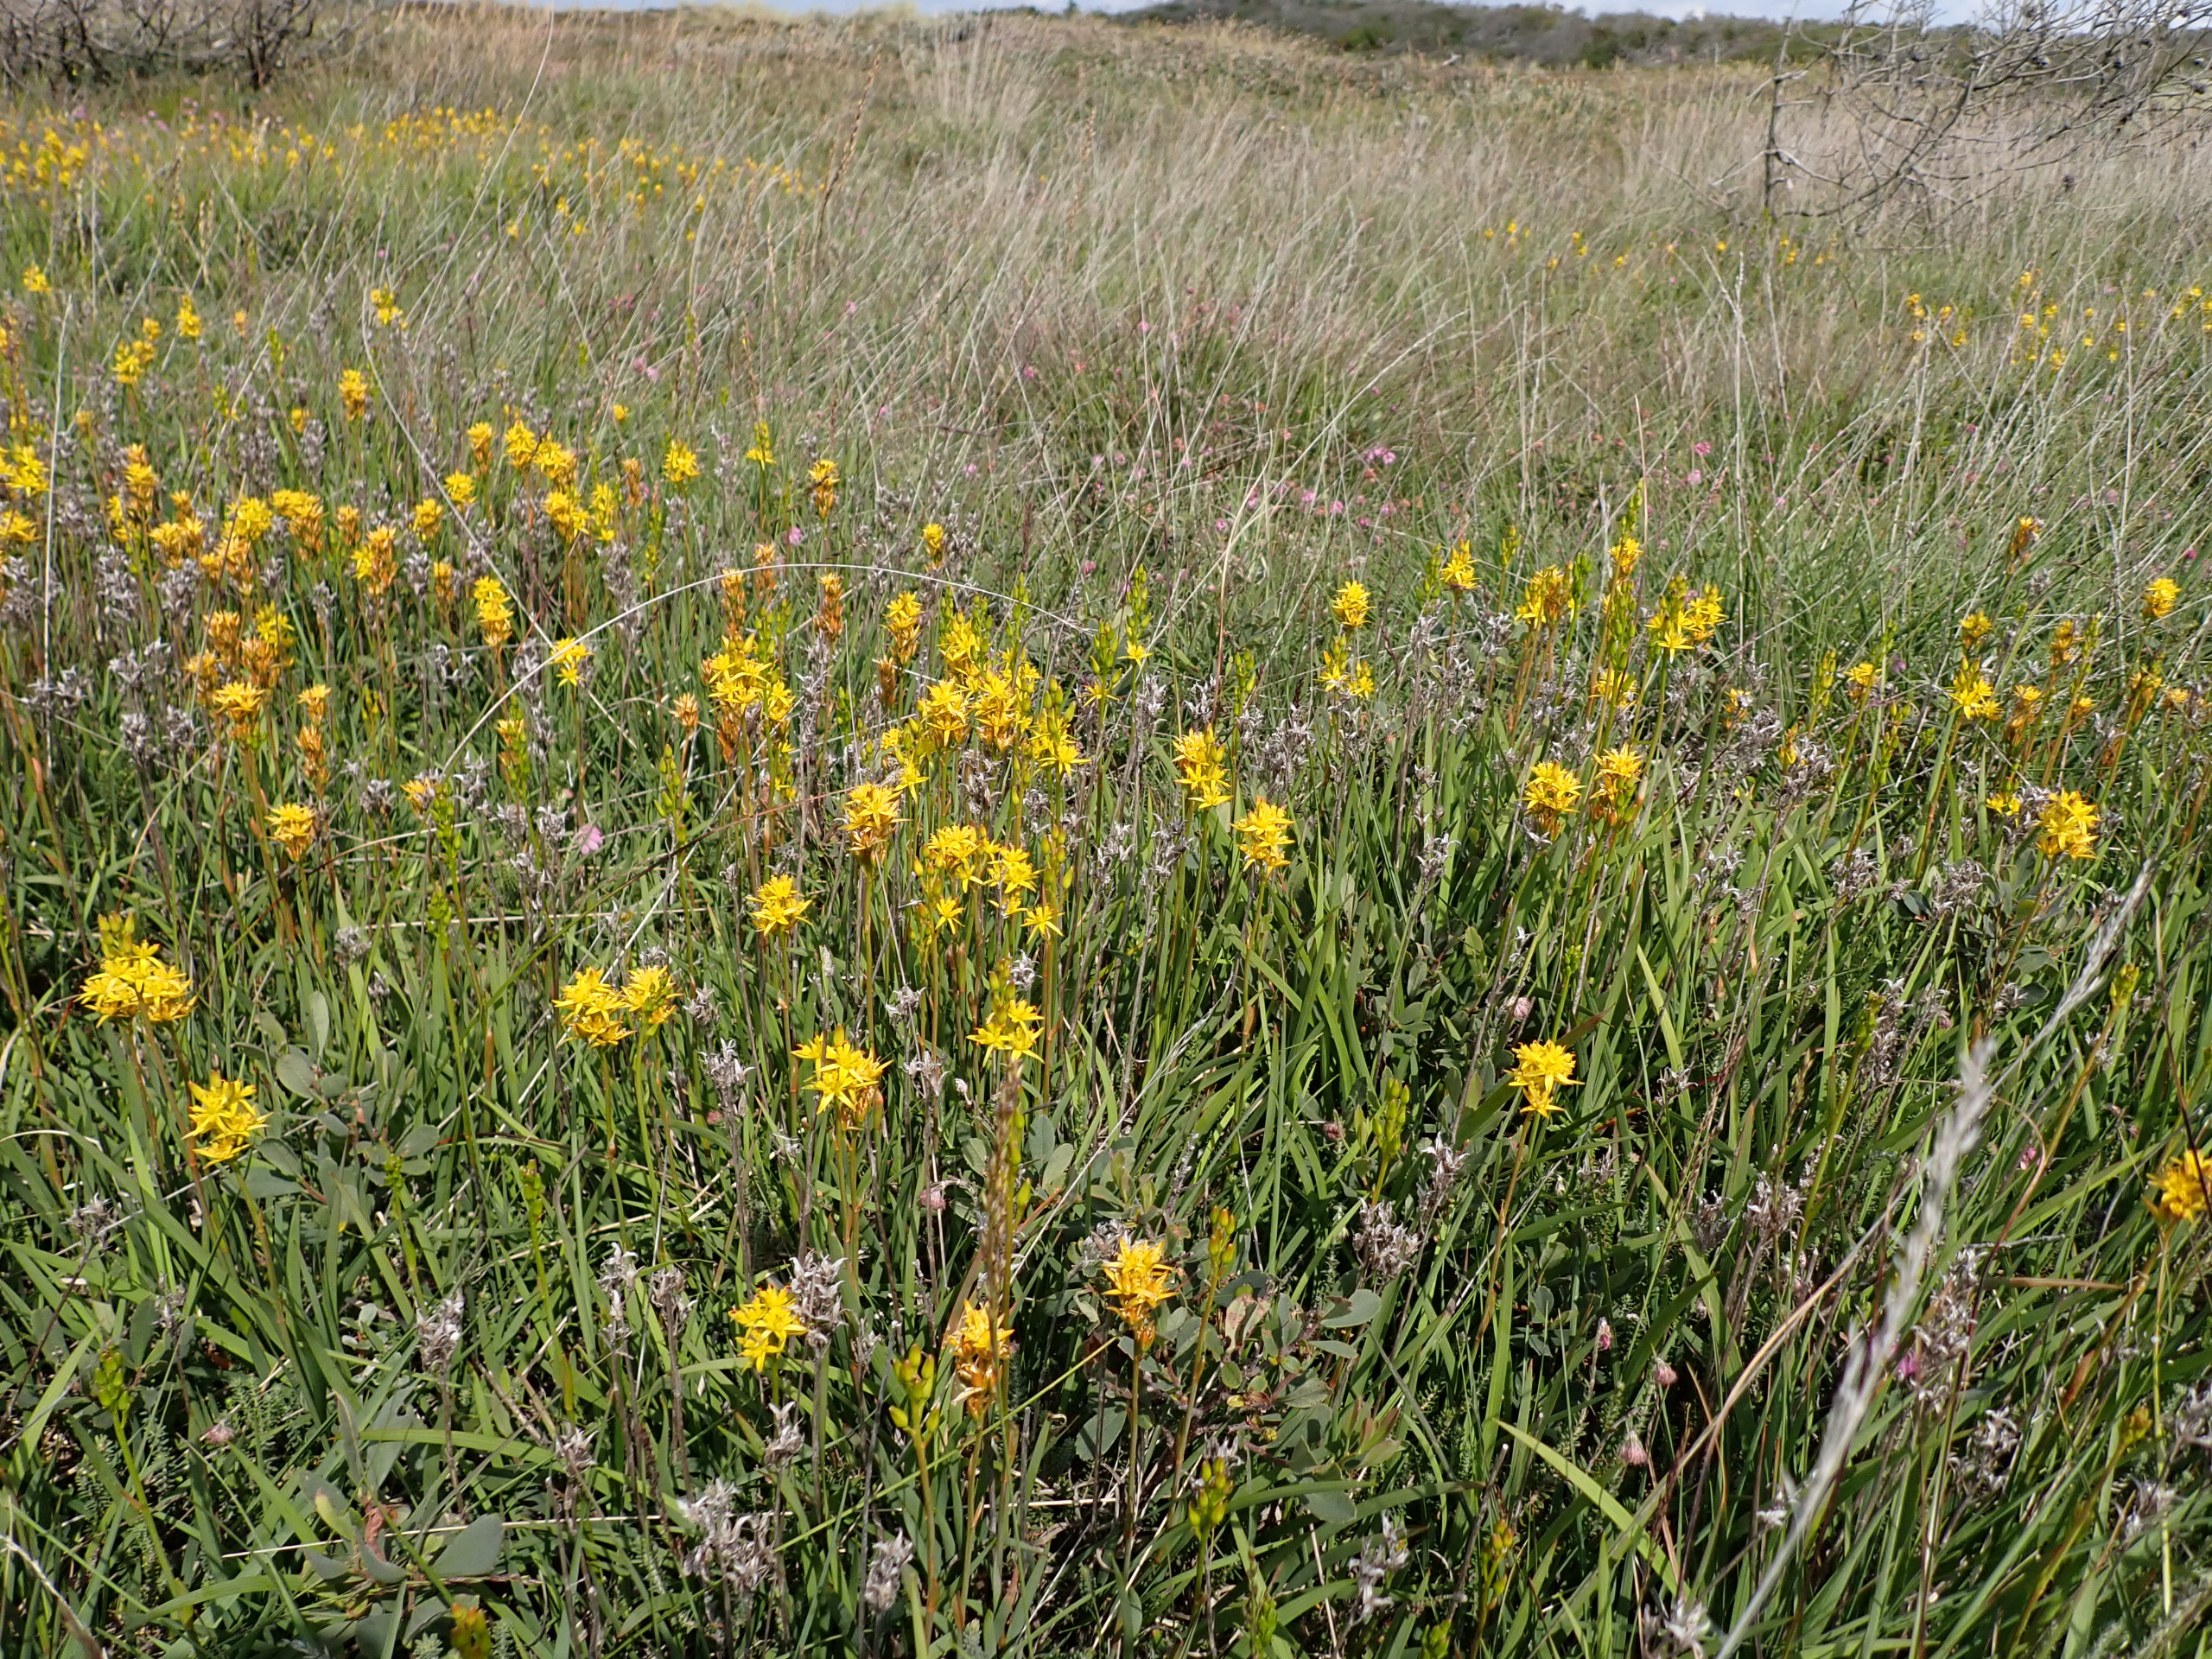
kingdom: Plantae
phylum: Tracheophyta
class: Liliopsida
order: Dioscoreales
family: Nartheciaceae
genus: Narthecium
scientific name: Narthecium ossifragum
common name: Benbræk
